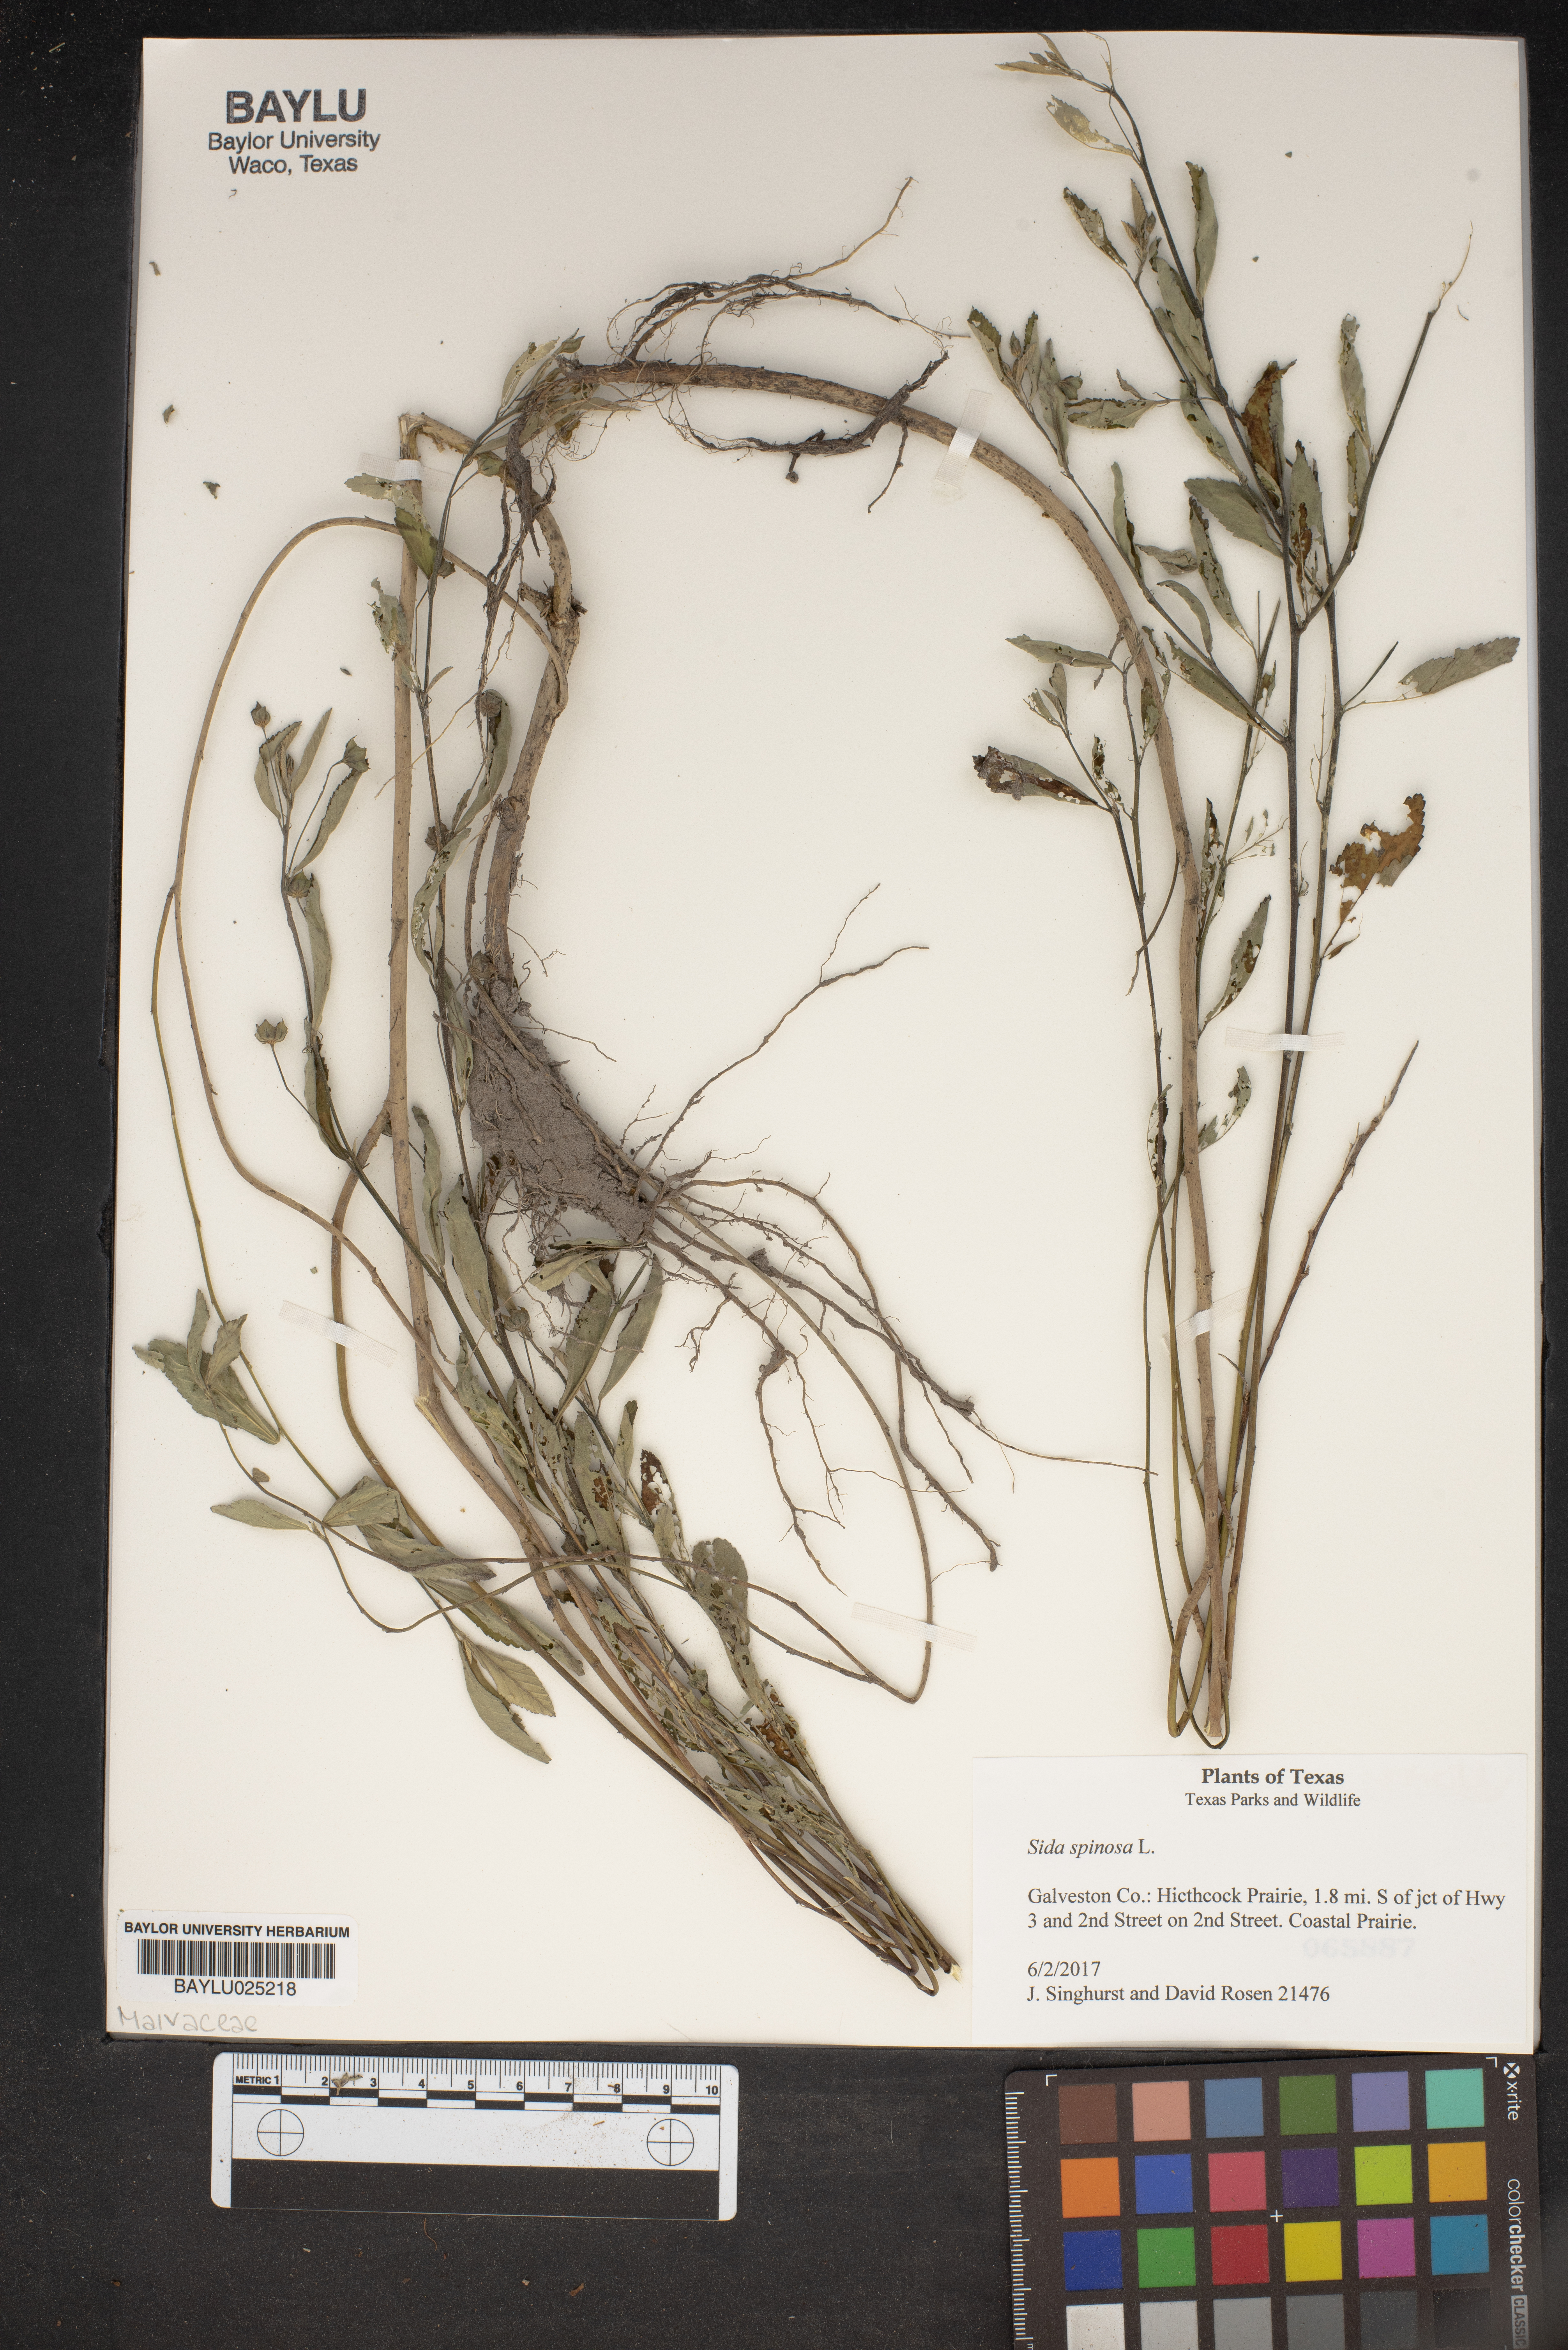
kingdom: Plantae
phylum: Tracheophyta
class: Magnoliopsida
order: Malvales
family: Malvaceae
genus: Sida
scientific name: Sida spinosa
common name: Prickly fanpetals
